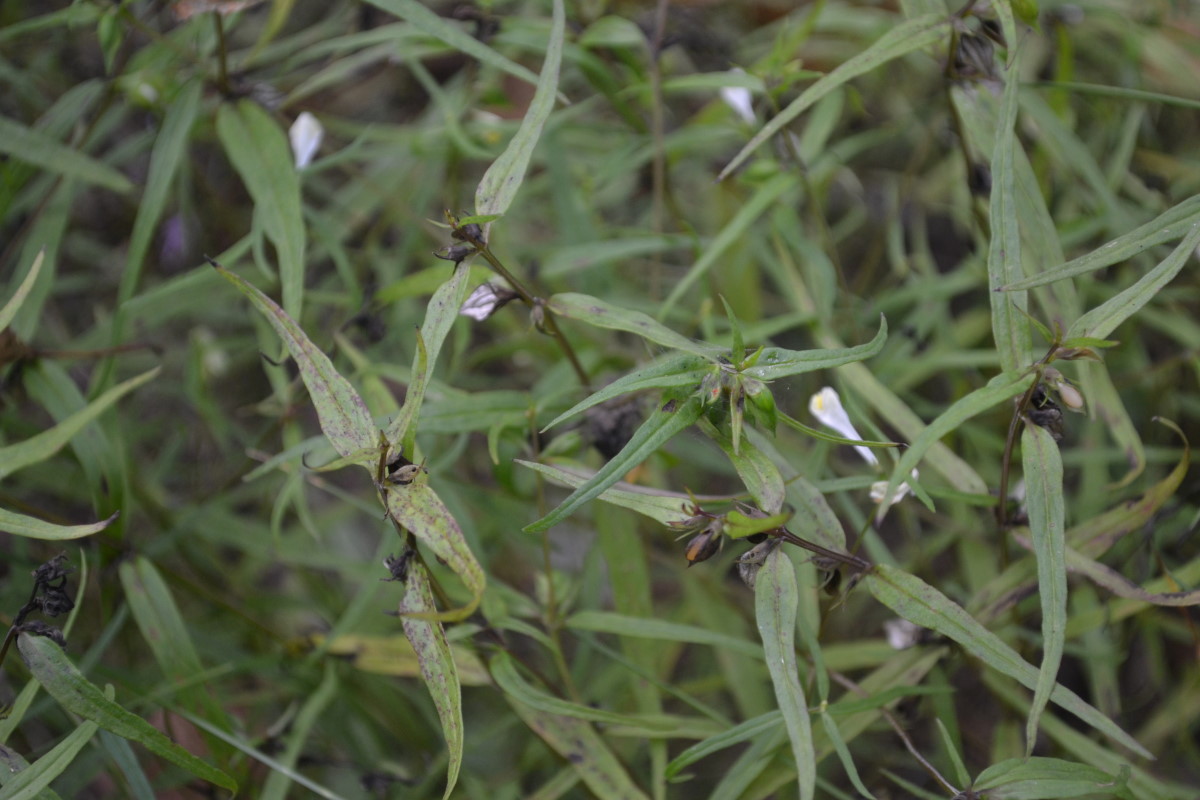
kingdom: Plantae
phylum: Tracheophyta
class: Magnoliopsida
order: Lamiales
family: Orobanchaceae
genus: Melampyrum
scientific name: Melampyrum pratense
